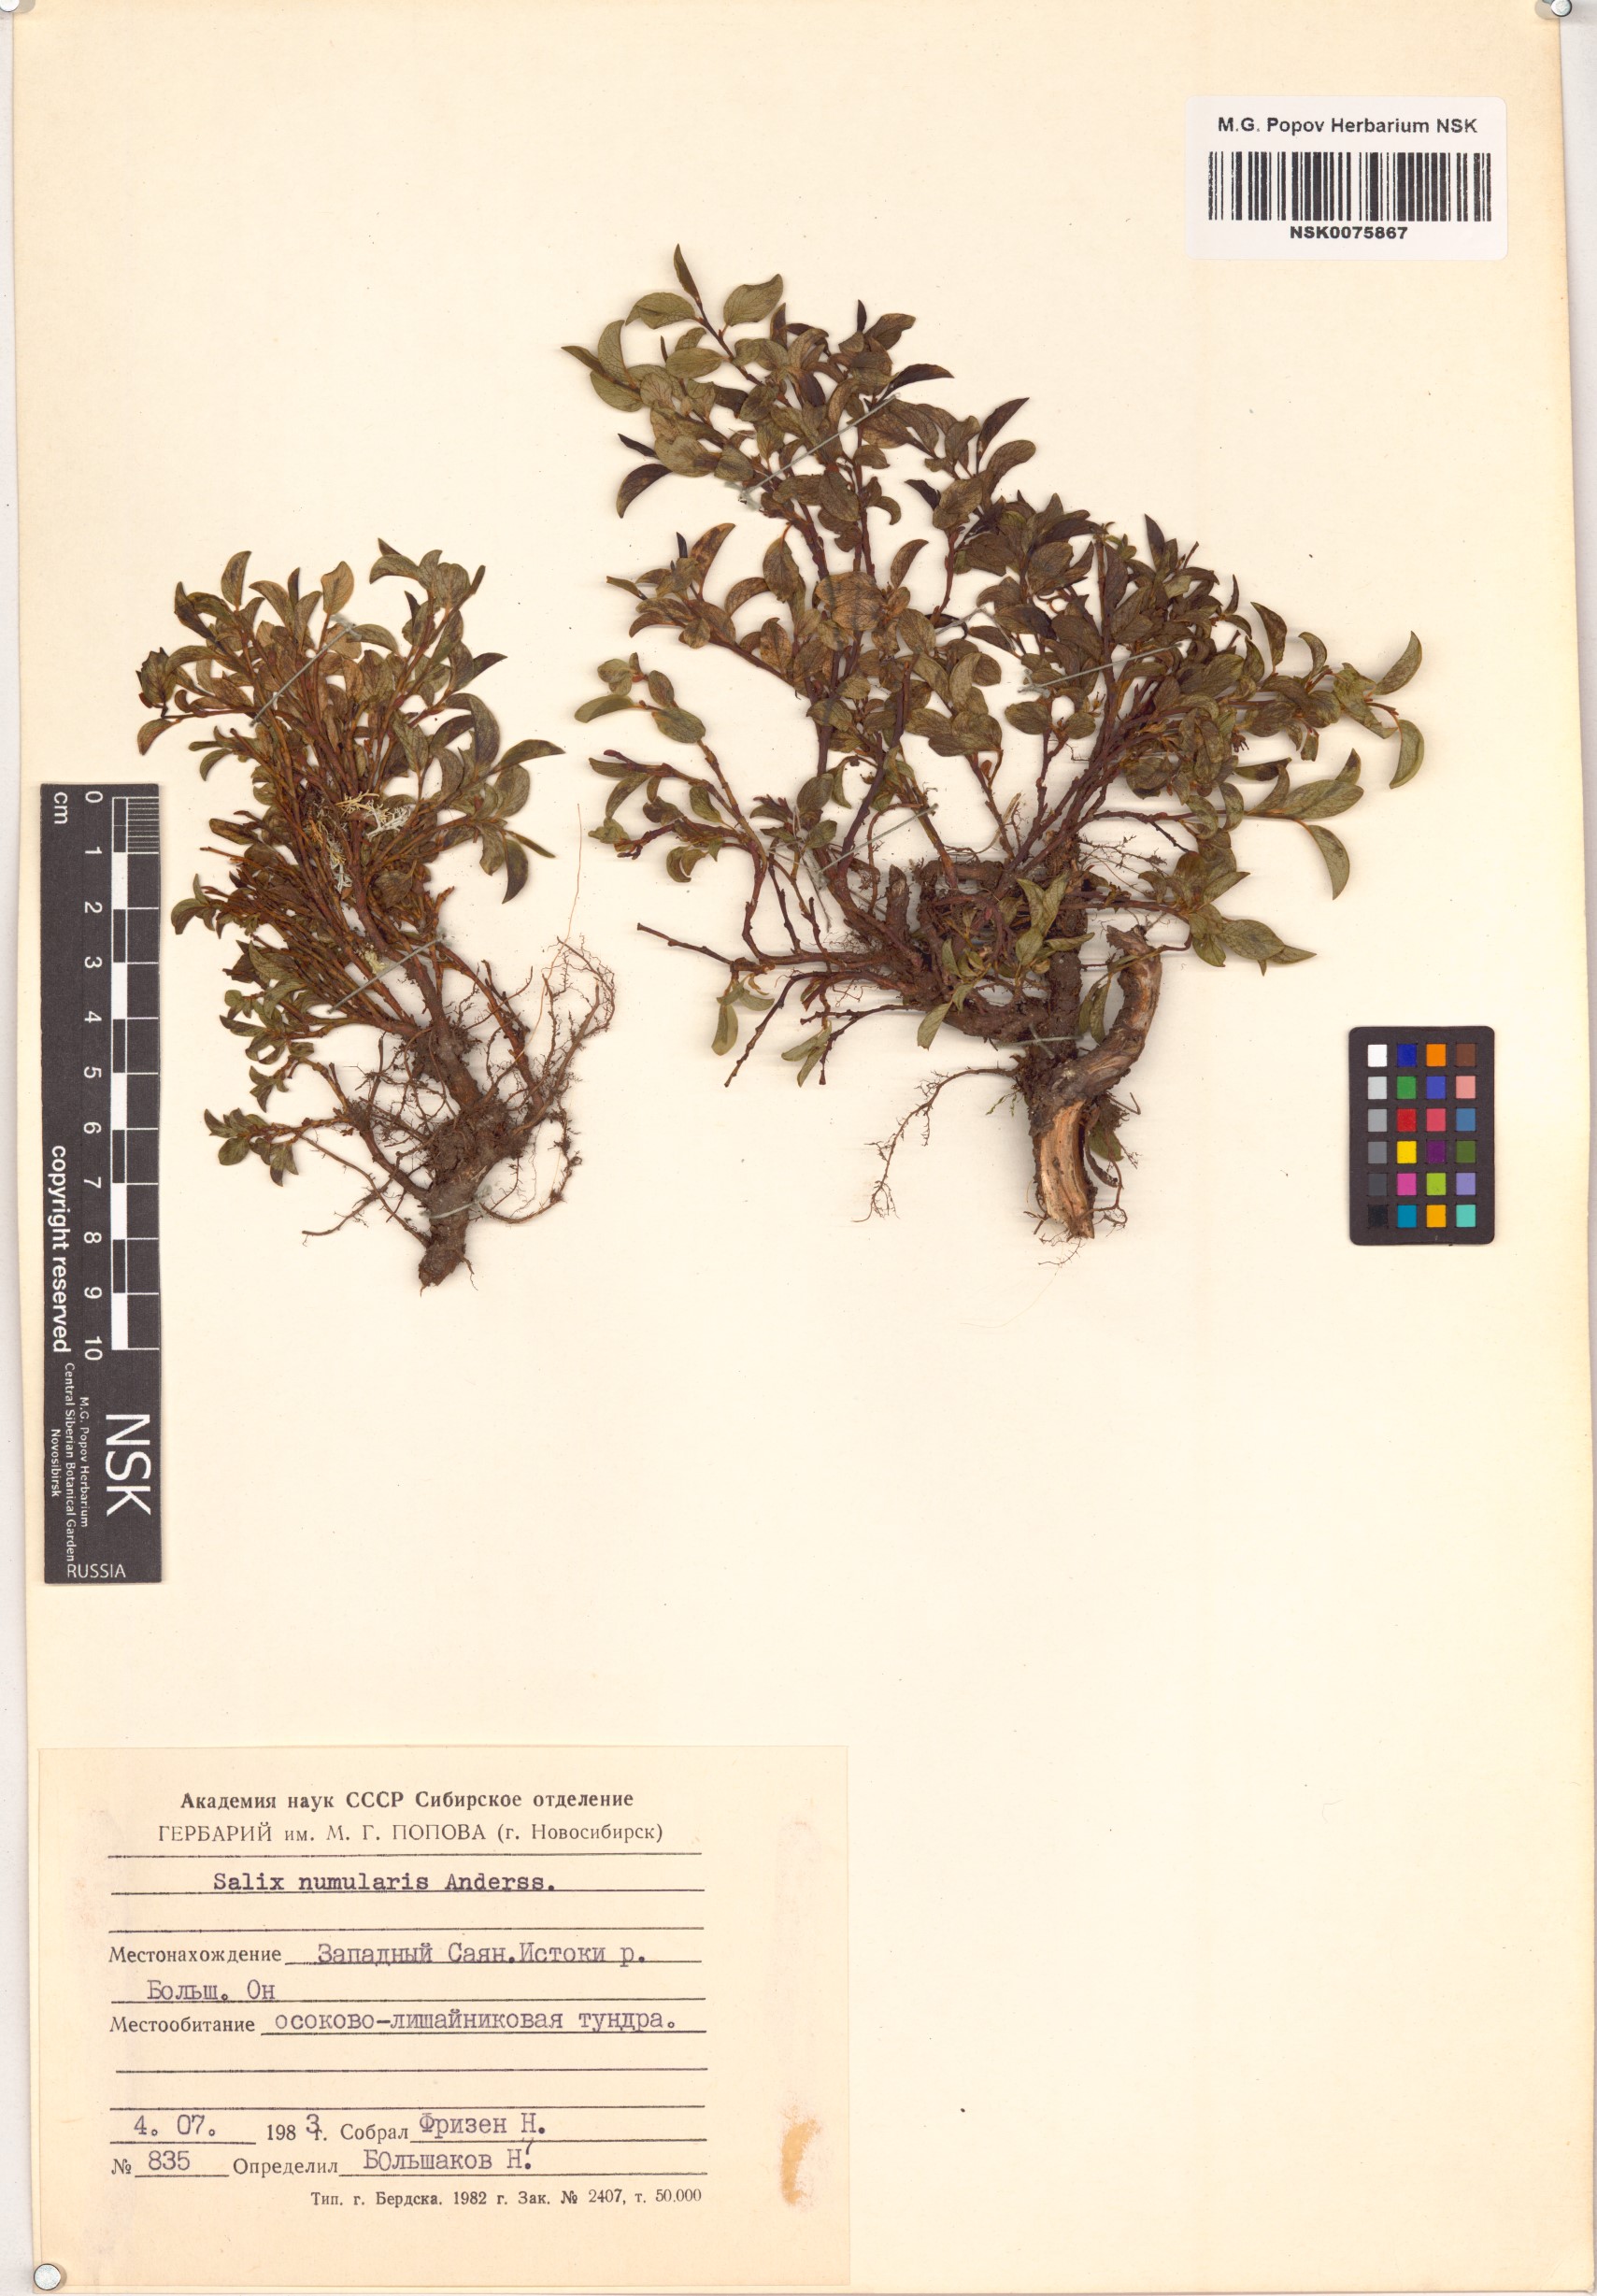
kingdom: Plantae
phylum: Tracheophyta
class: Magnoliopsida
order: Malpighiales
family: Salicaceae
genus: Salix
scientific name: Salix nummularia
